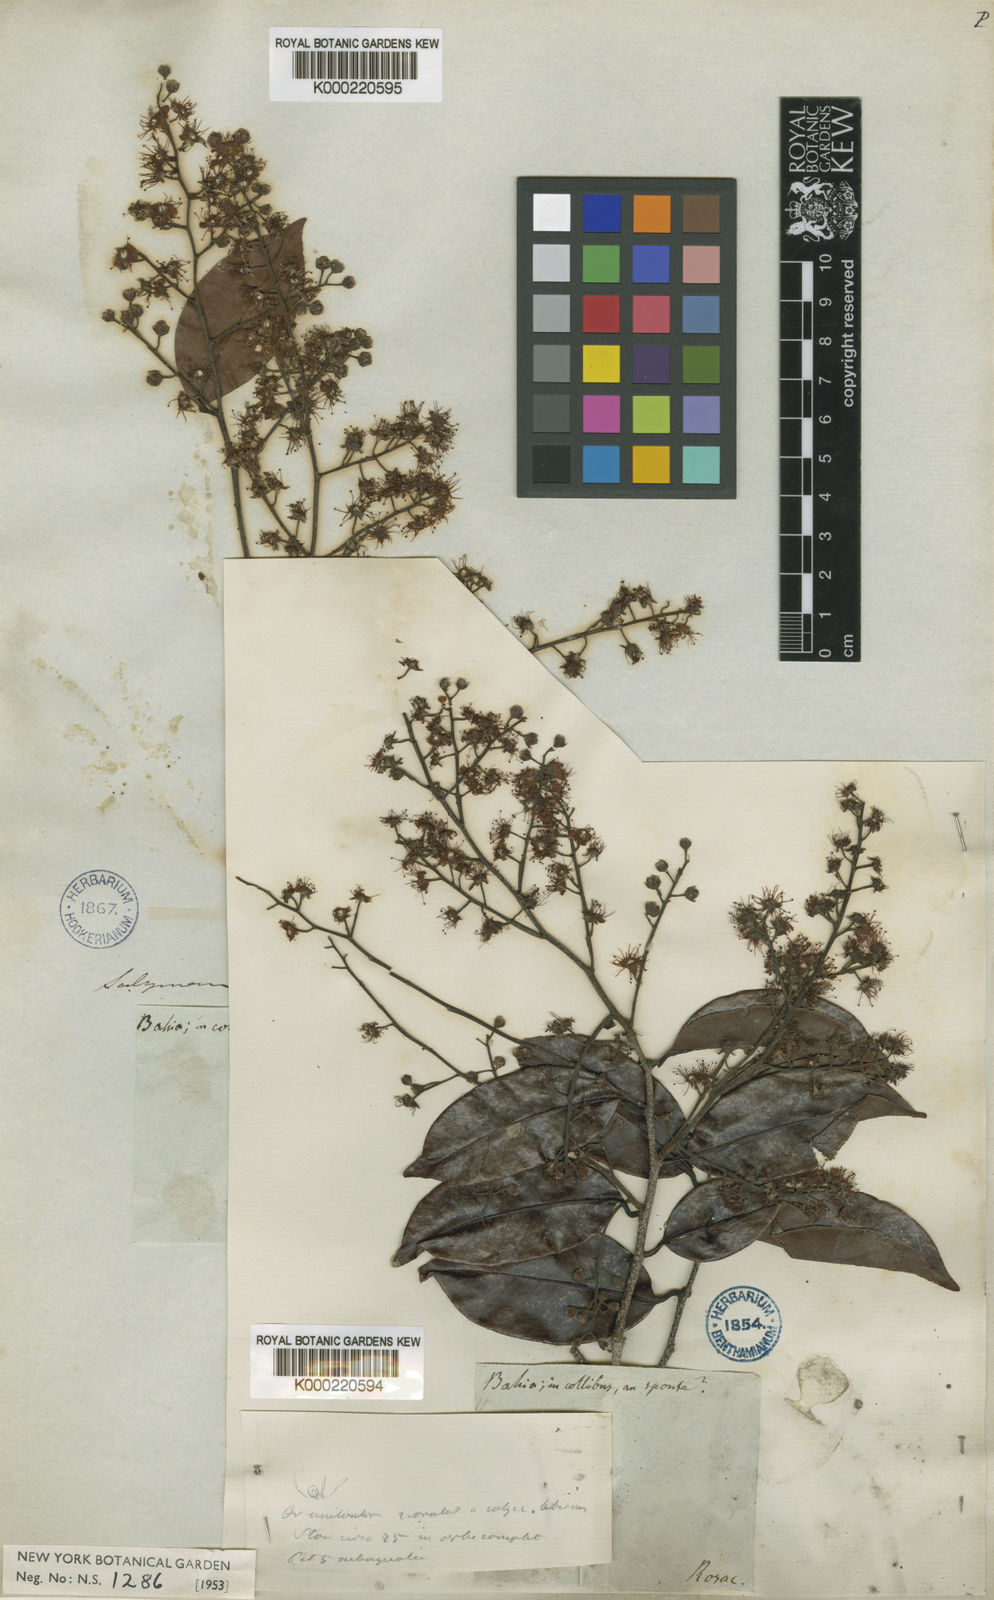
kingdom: Plantae
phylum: Tracheophyta
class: Magnoliopsida
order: Malpighiales
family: Chrysobalanaceae
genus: Moquilea
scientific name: Moquilea salzmannii
